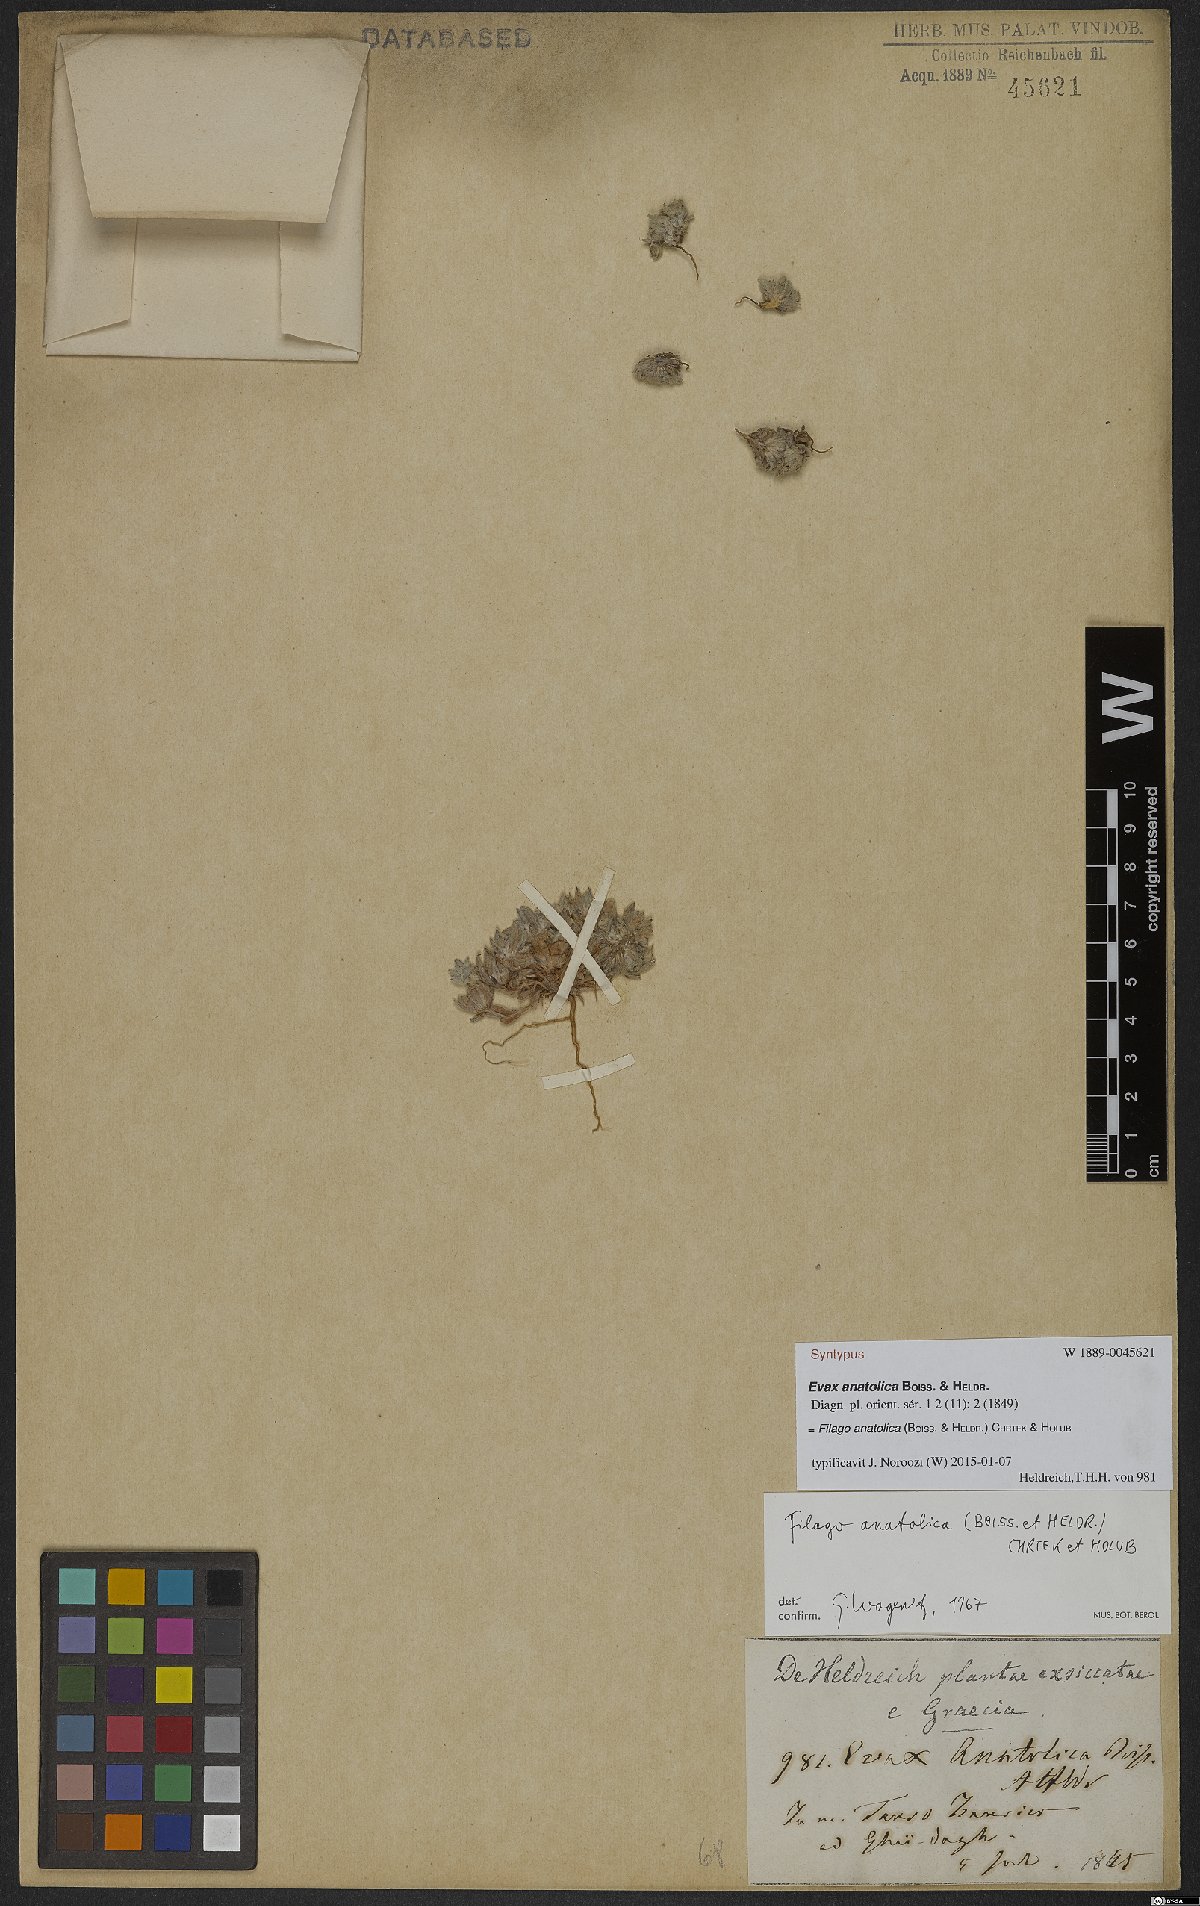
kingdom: Plantae
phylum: Tracheophyta
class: Magnoliopsida
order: Asterales
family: Asteraceae
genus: Filago
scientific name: Filago anatolica
